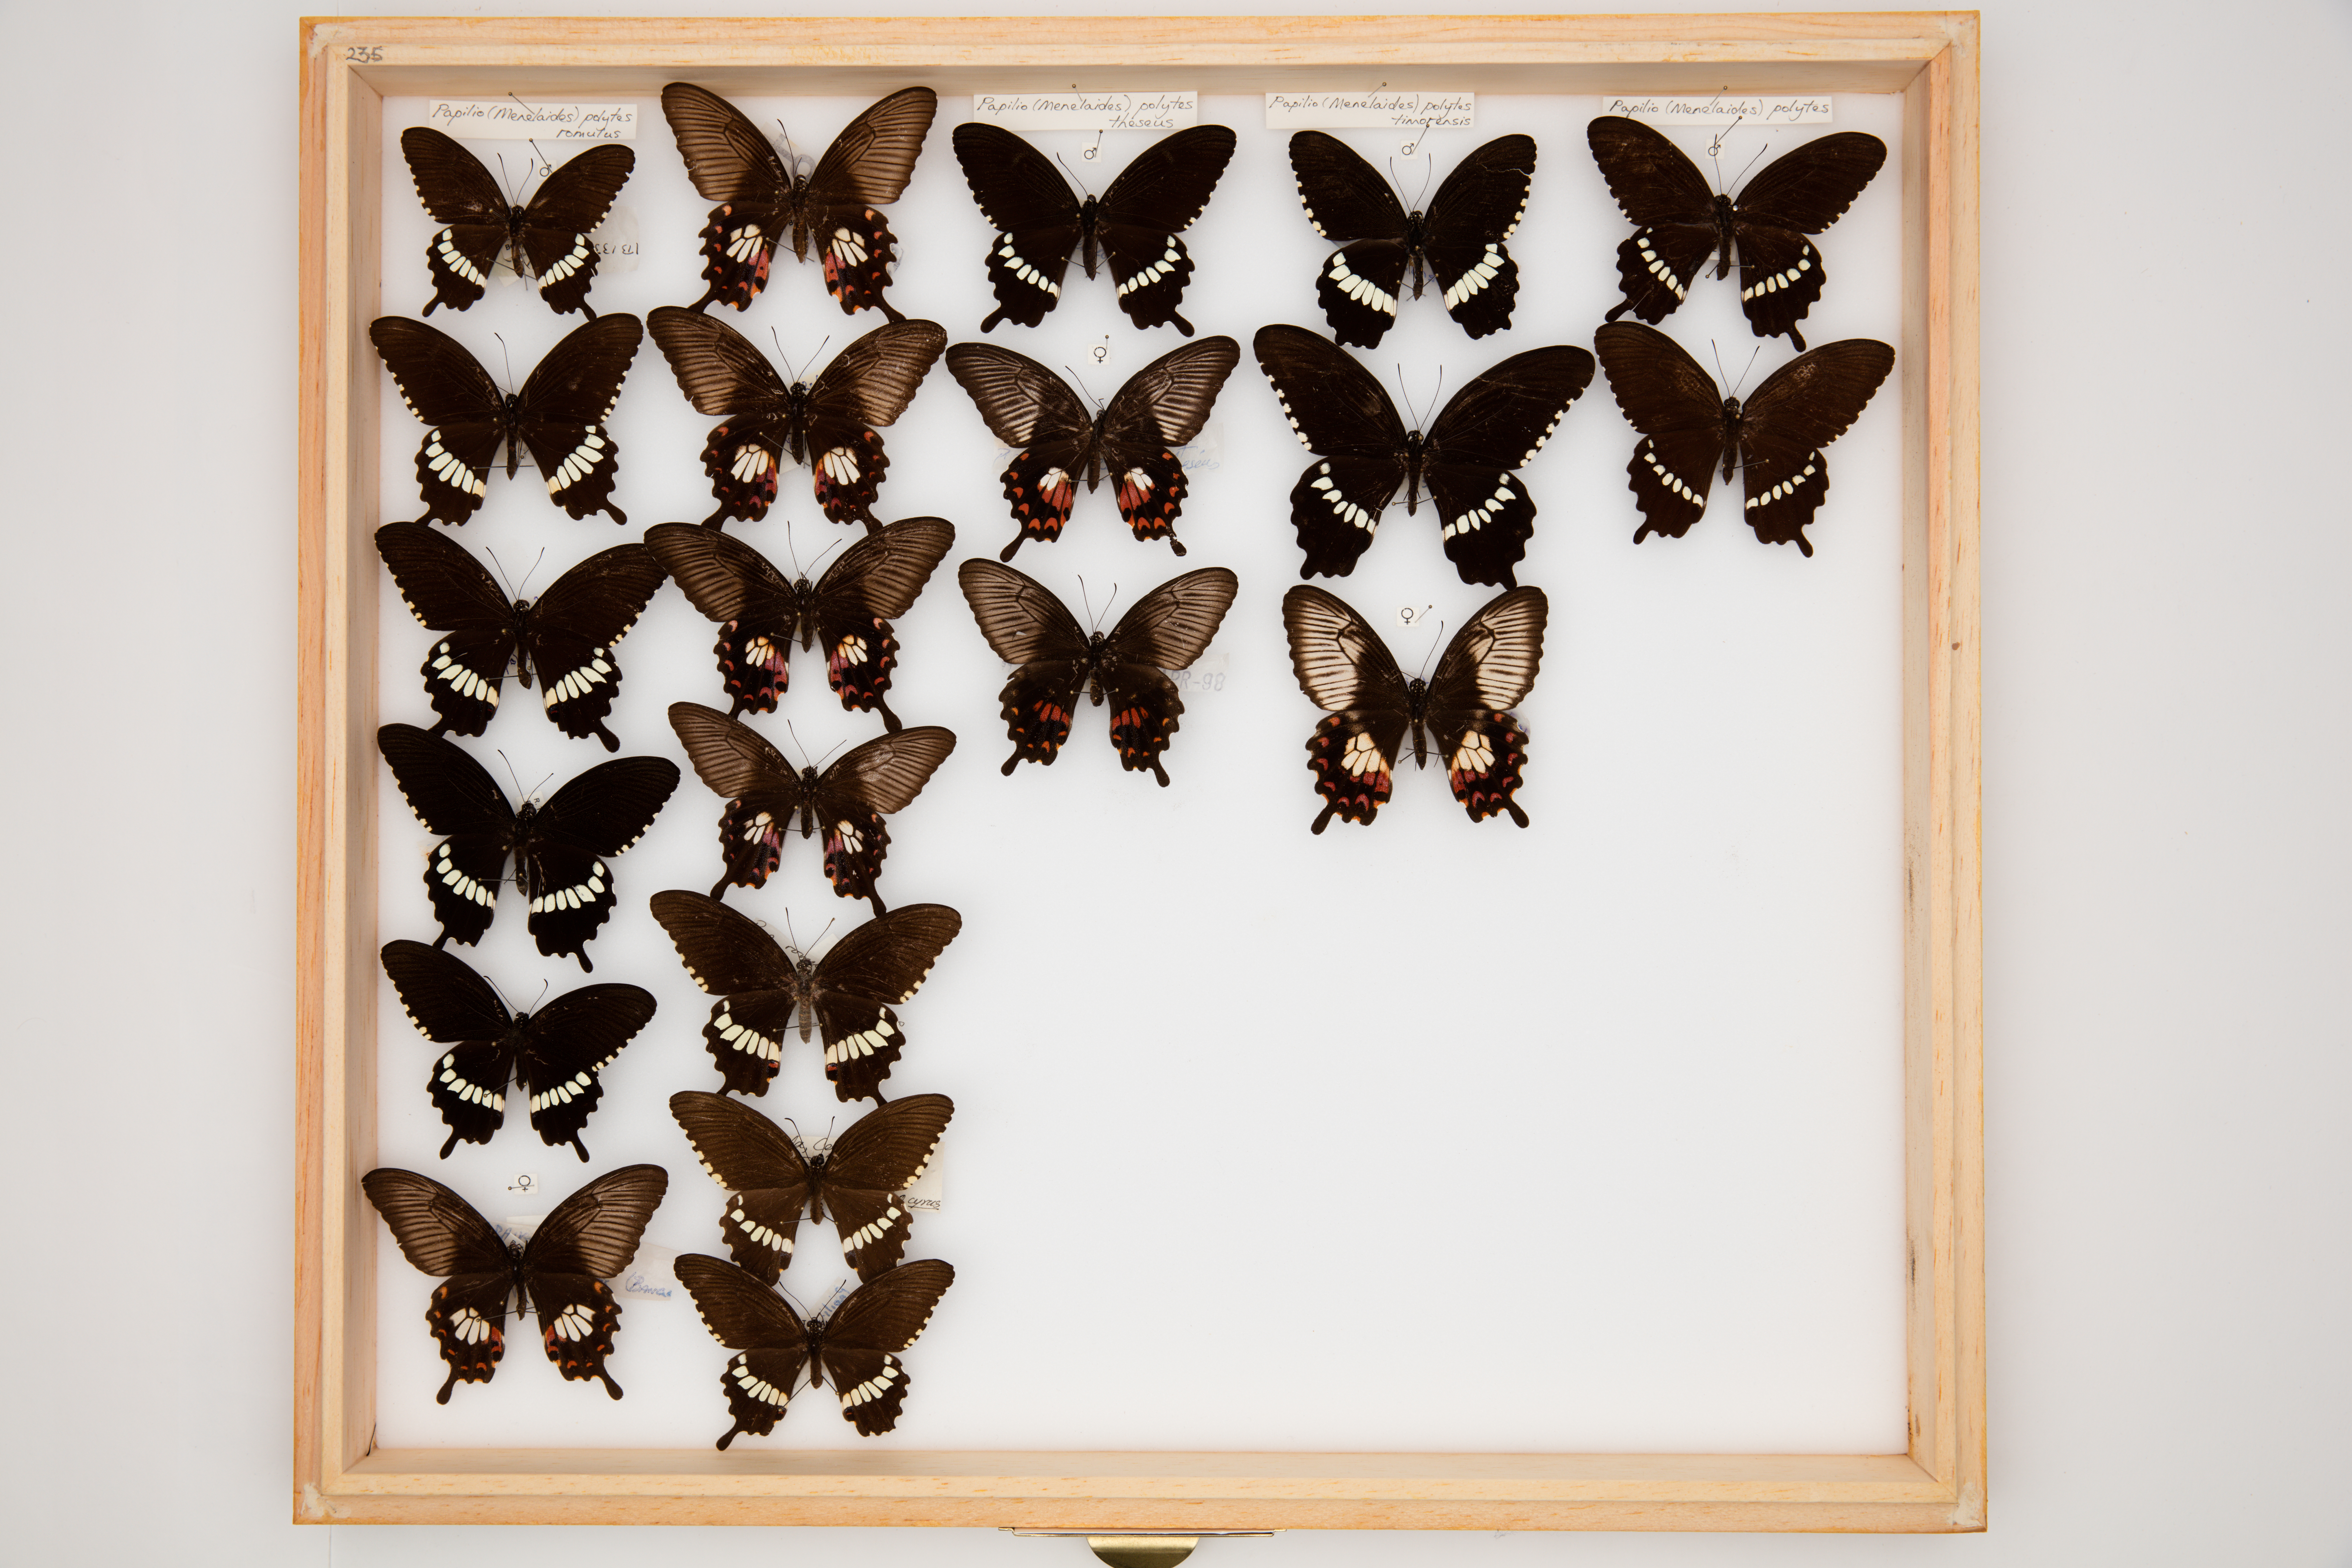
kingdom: Animalia
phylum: Arthropoda
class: Insecta
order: Lepidoptera
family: Papilionidae
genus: Papilio
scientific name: Papilio polytes
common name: Common mormon
